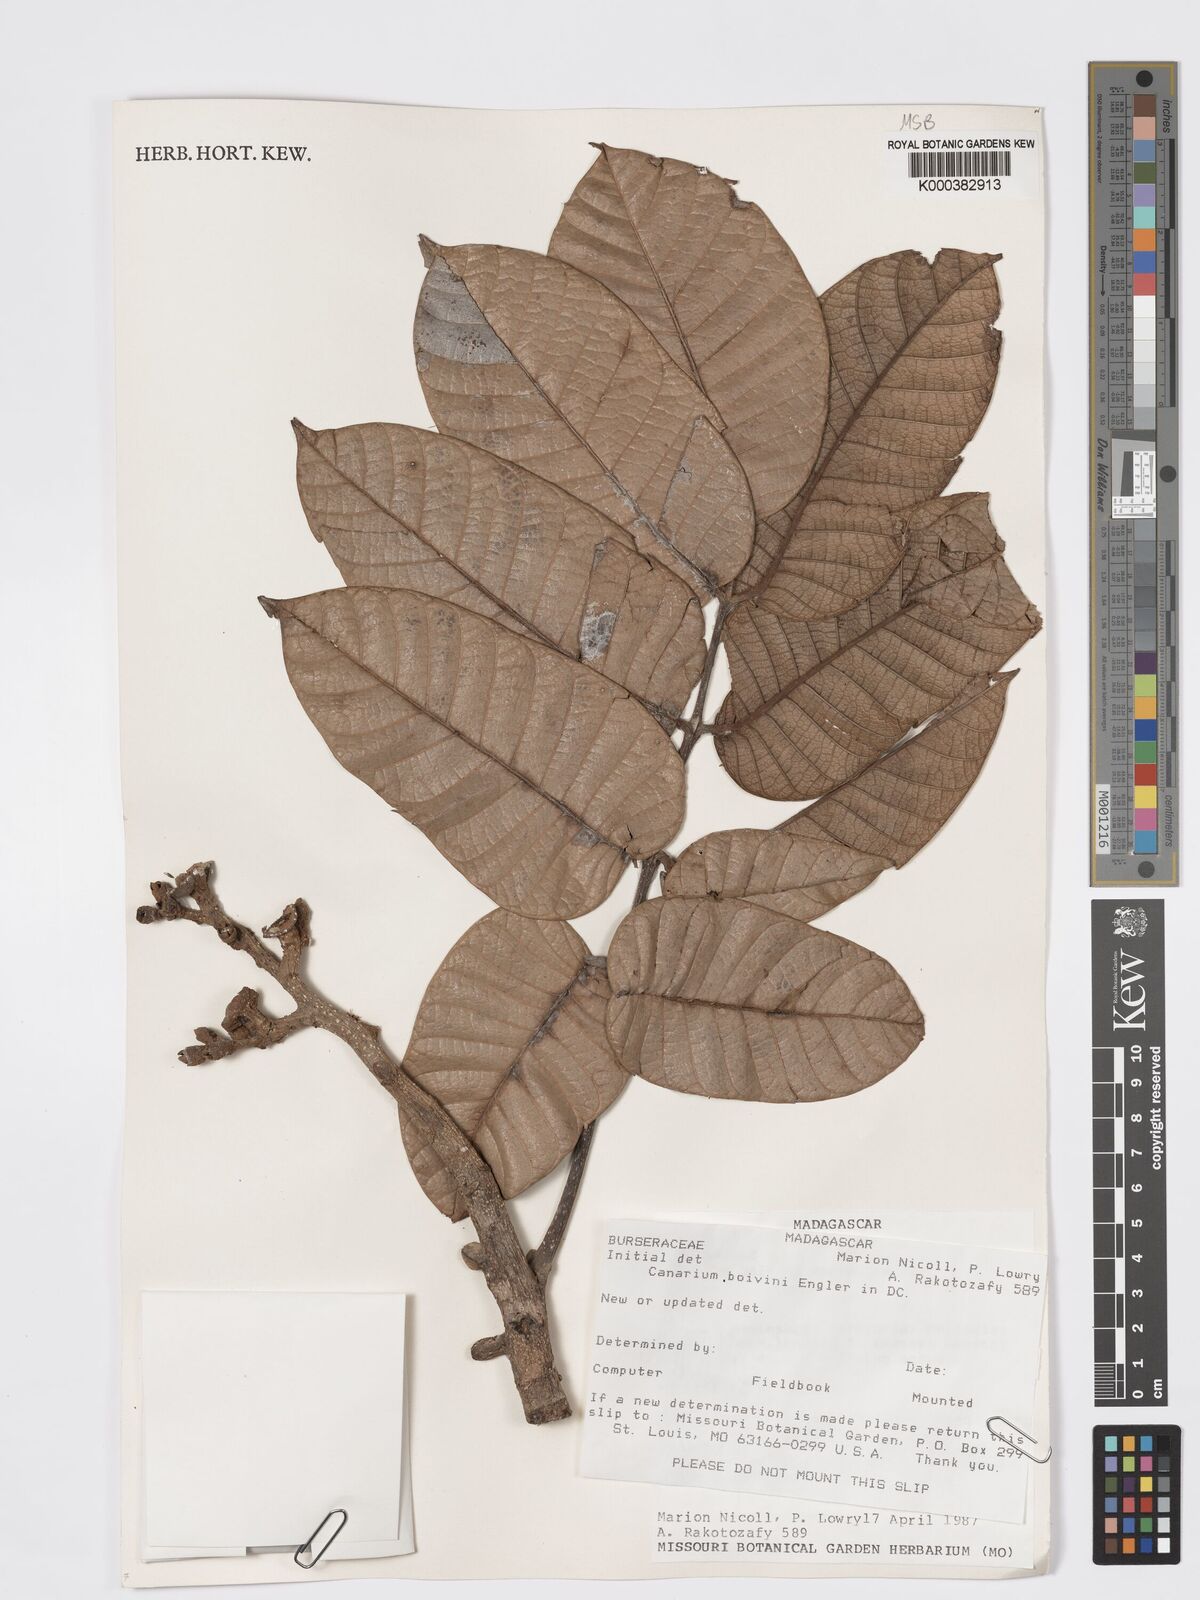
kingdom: Plantae
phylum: Tracheophyta
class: Magnoliopsida
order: Sapindales
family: Burseraceae
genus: Canarium
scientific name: Canarium madagascariense
